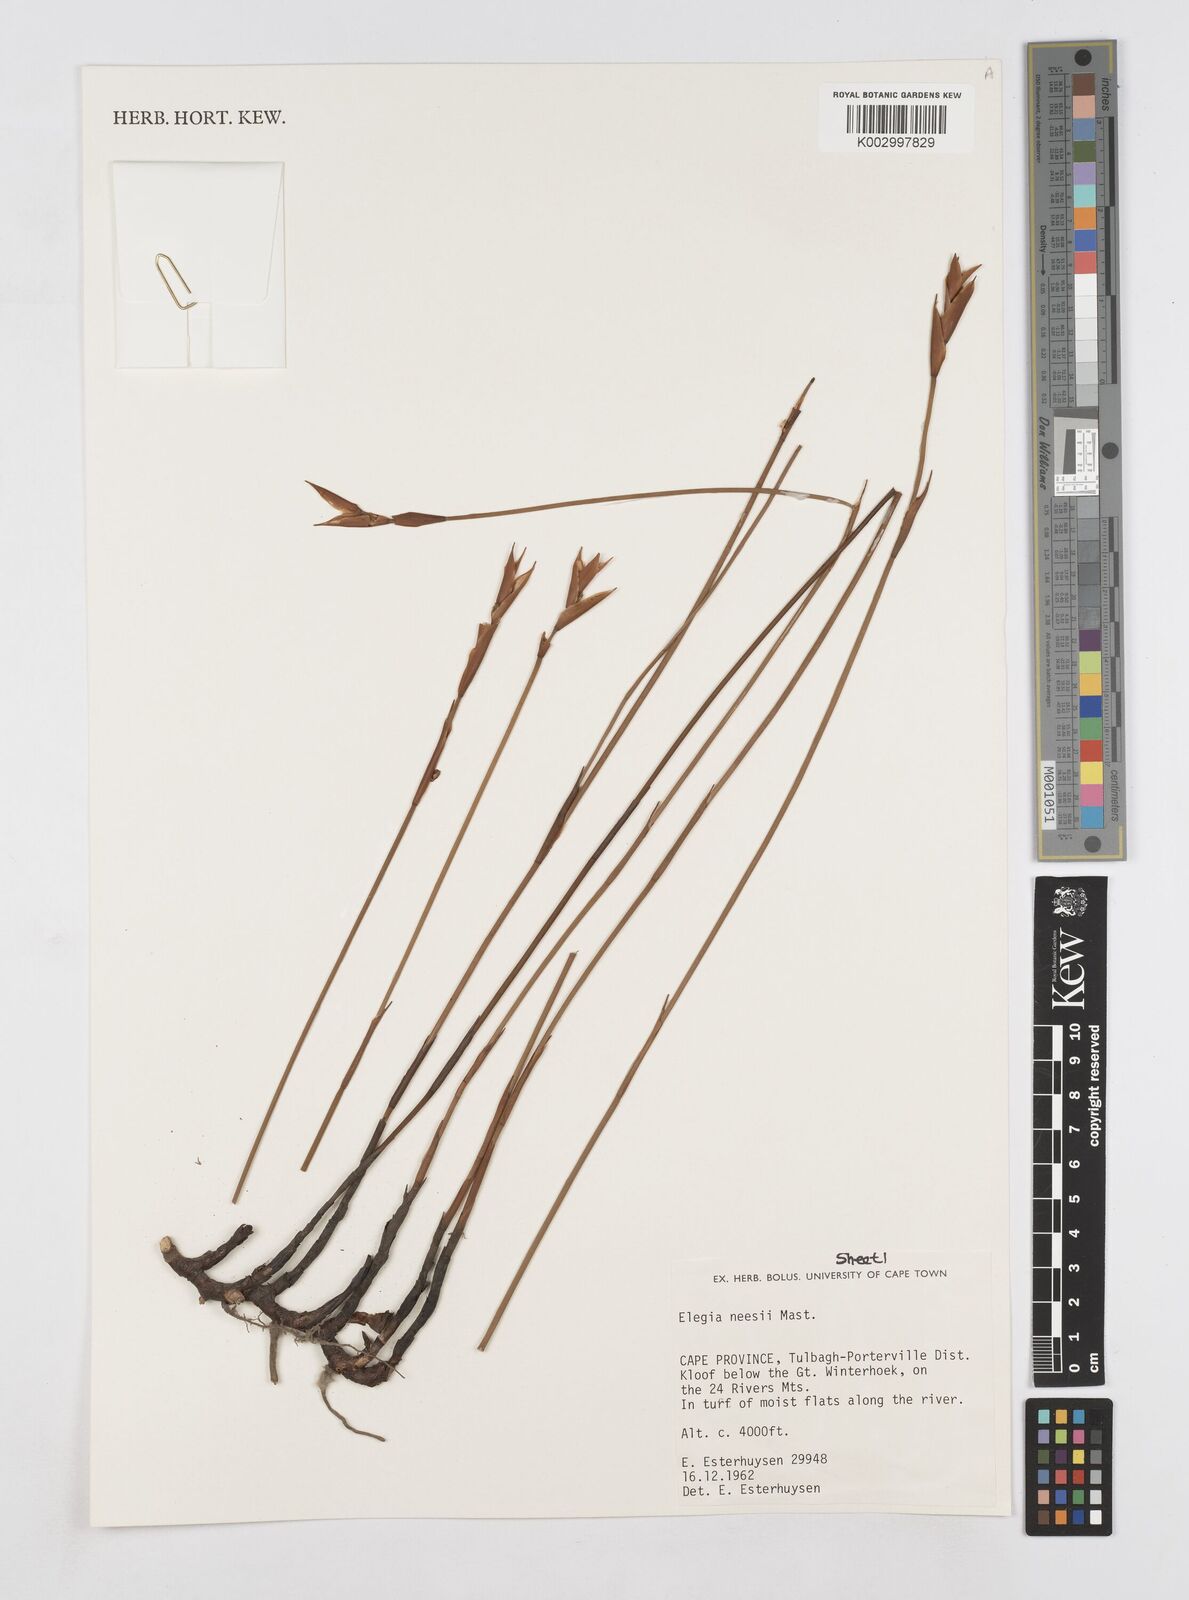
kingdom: Plantae
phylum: Tracheophyta
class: Liliopsida
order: Poales
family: Restionaceae
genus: Elegia
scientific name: Elegia neesii
